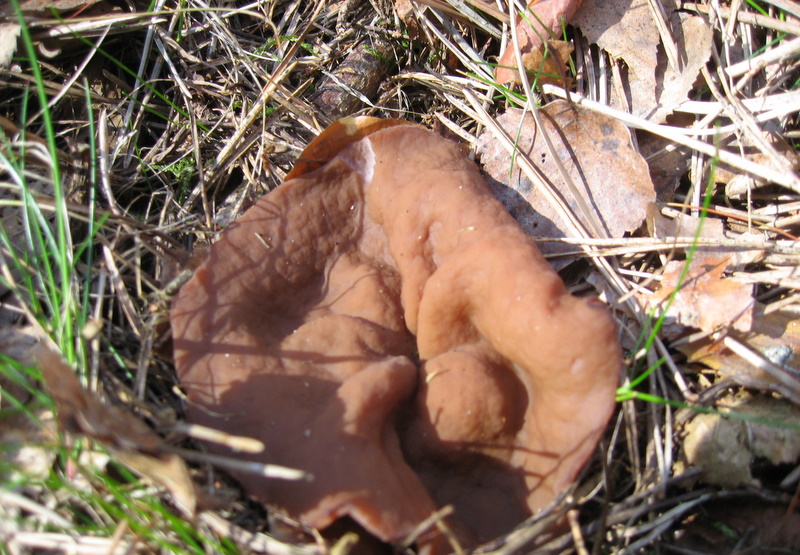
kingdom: Fungi
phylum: Ascomycota
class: Pezizomycetes
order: Pezizales
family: Discinaceae
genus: Discina
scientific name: Discina ancilis
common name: udbredt stenmorkel
